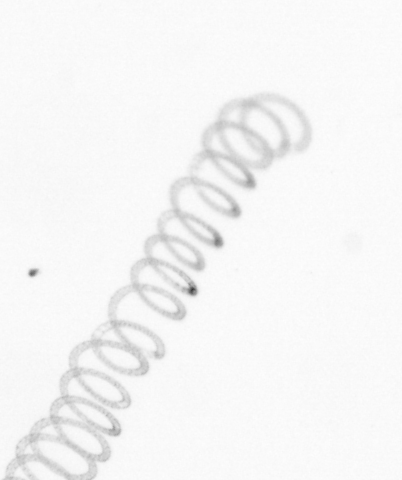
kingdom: Chromista
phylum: Ochrophyta
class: Bacillariophyceae
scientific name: Bacillariophyceae
